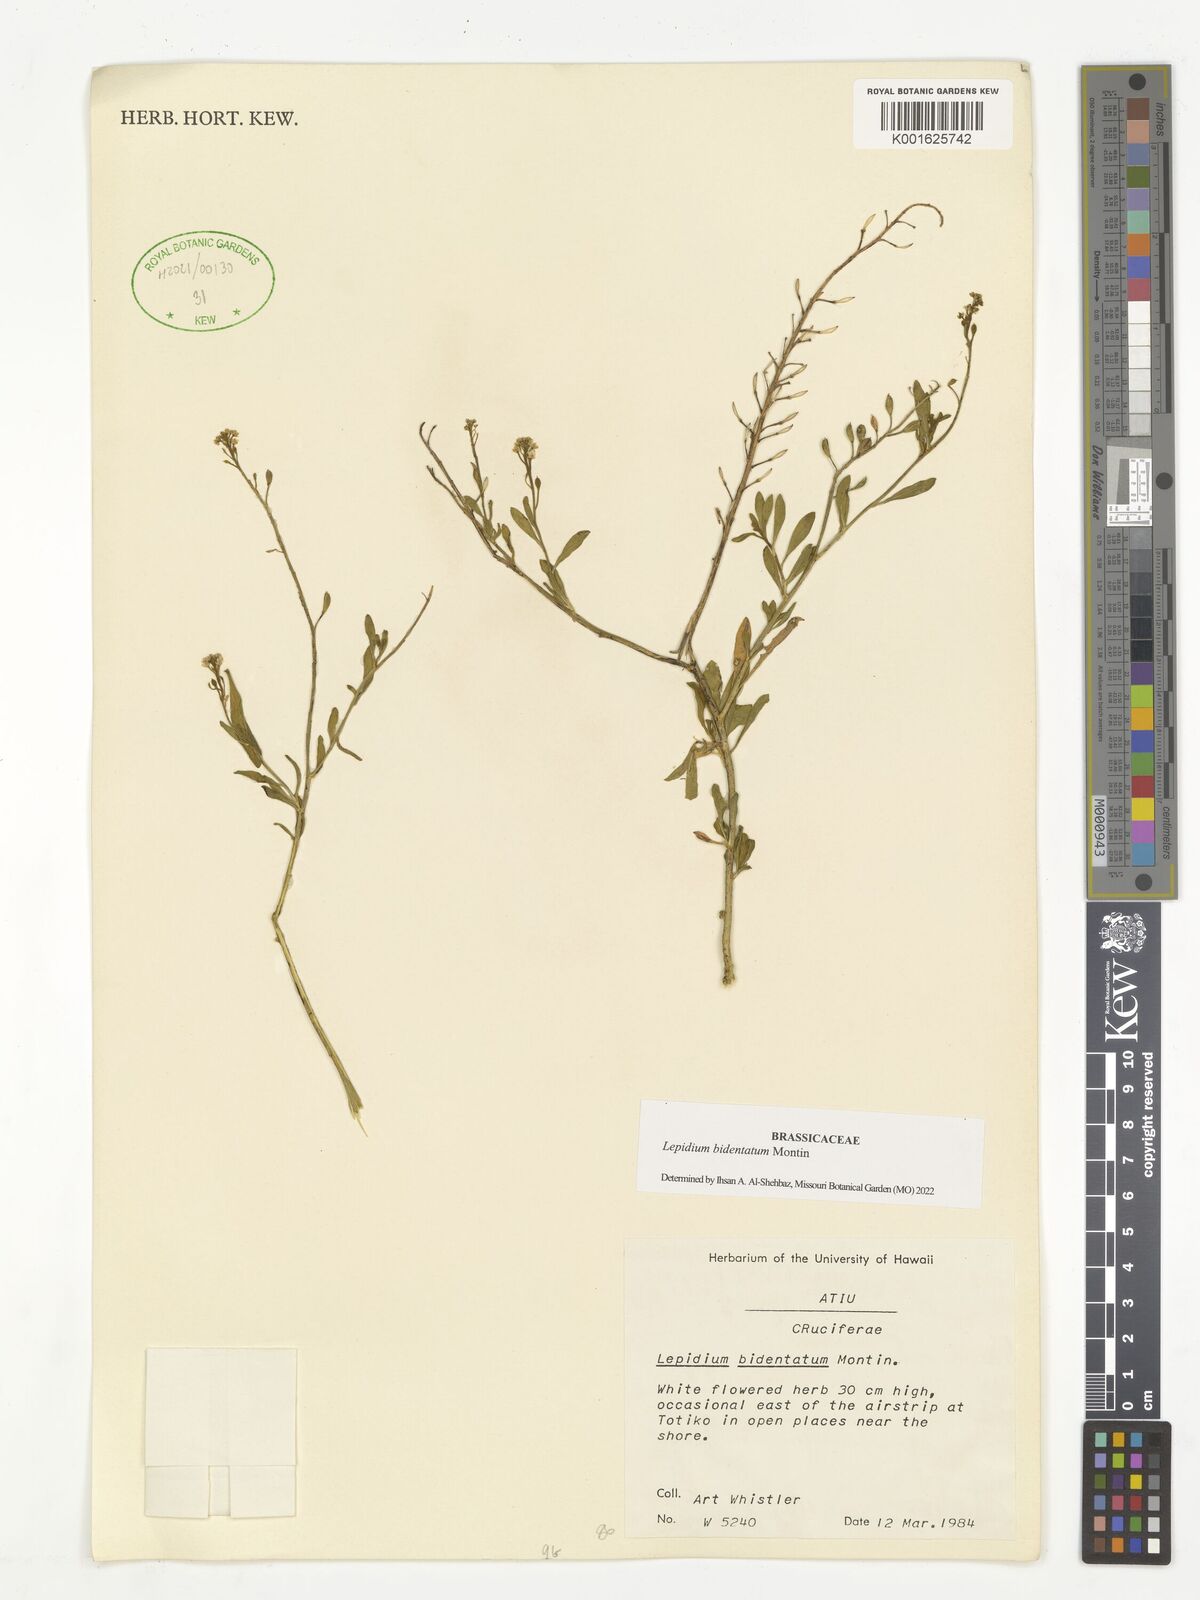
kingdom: Plantae
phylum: Tracheophyta
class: Magnoliopsida
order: Brassicales
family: Brassicaceae
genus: Lepidium
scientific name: Lepidium bidentatum
